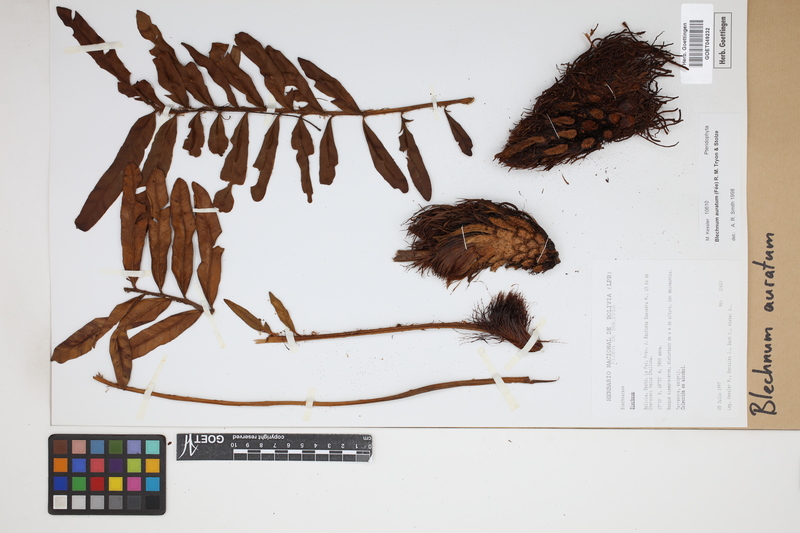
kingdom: Plantae
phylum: Tracheophyta
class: Polypodiopsida
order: Polypodiales
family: Blechnaceae
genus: Lomariocycas
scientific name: Lomariocycas aurata
